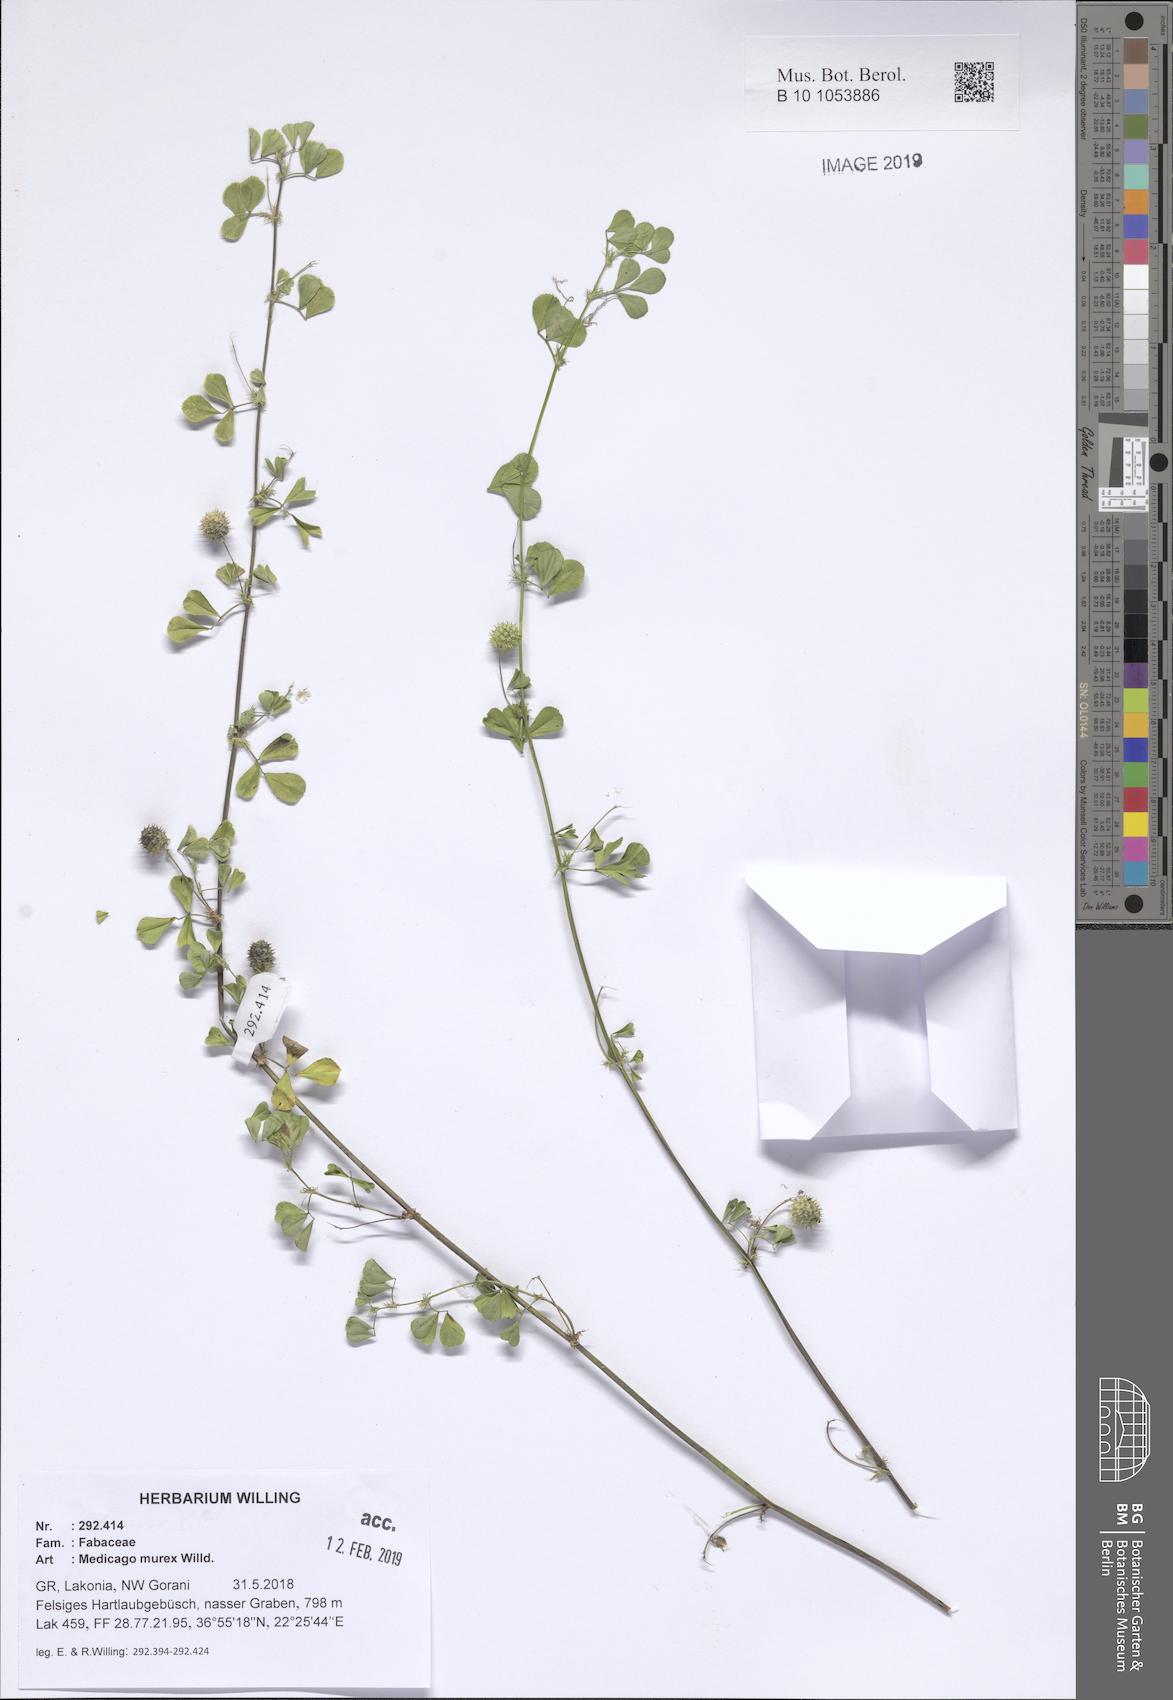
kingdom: Plantae
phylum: Tracheophyta
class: Magnoliopsida
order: Fabales
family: Fabaceae
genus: Medicago
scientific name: Medicago murex
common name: Murex
